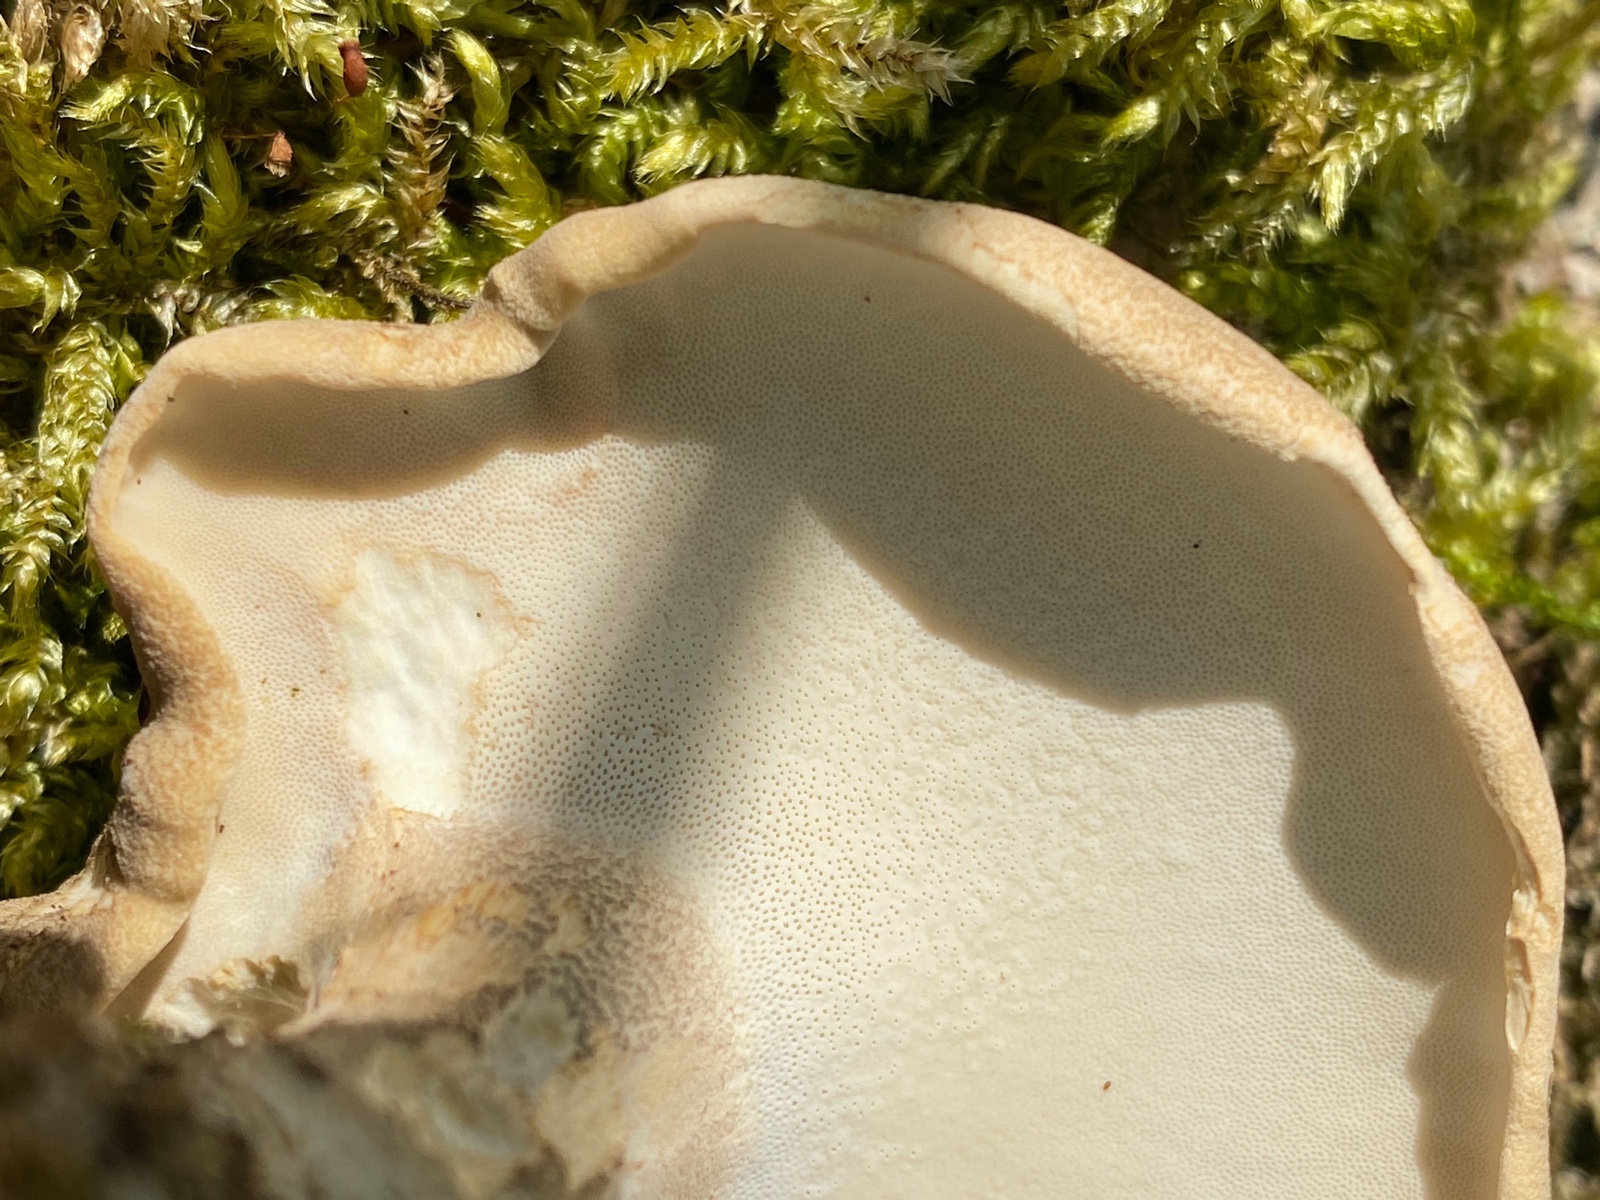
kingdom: Fungi
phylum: Basidiomycota
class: Agaricomycetes
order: Polyporales
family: Polyporaceae
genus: Lentinus
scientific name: Lentinus substrictus
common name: forårs-stilkporesvamp
